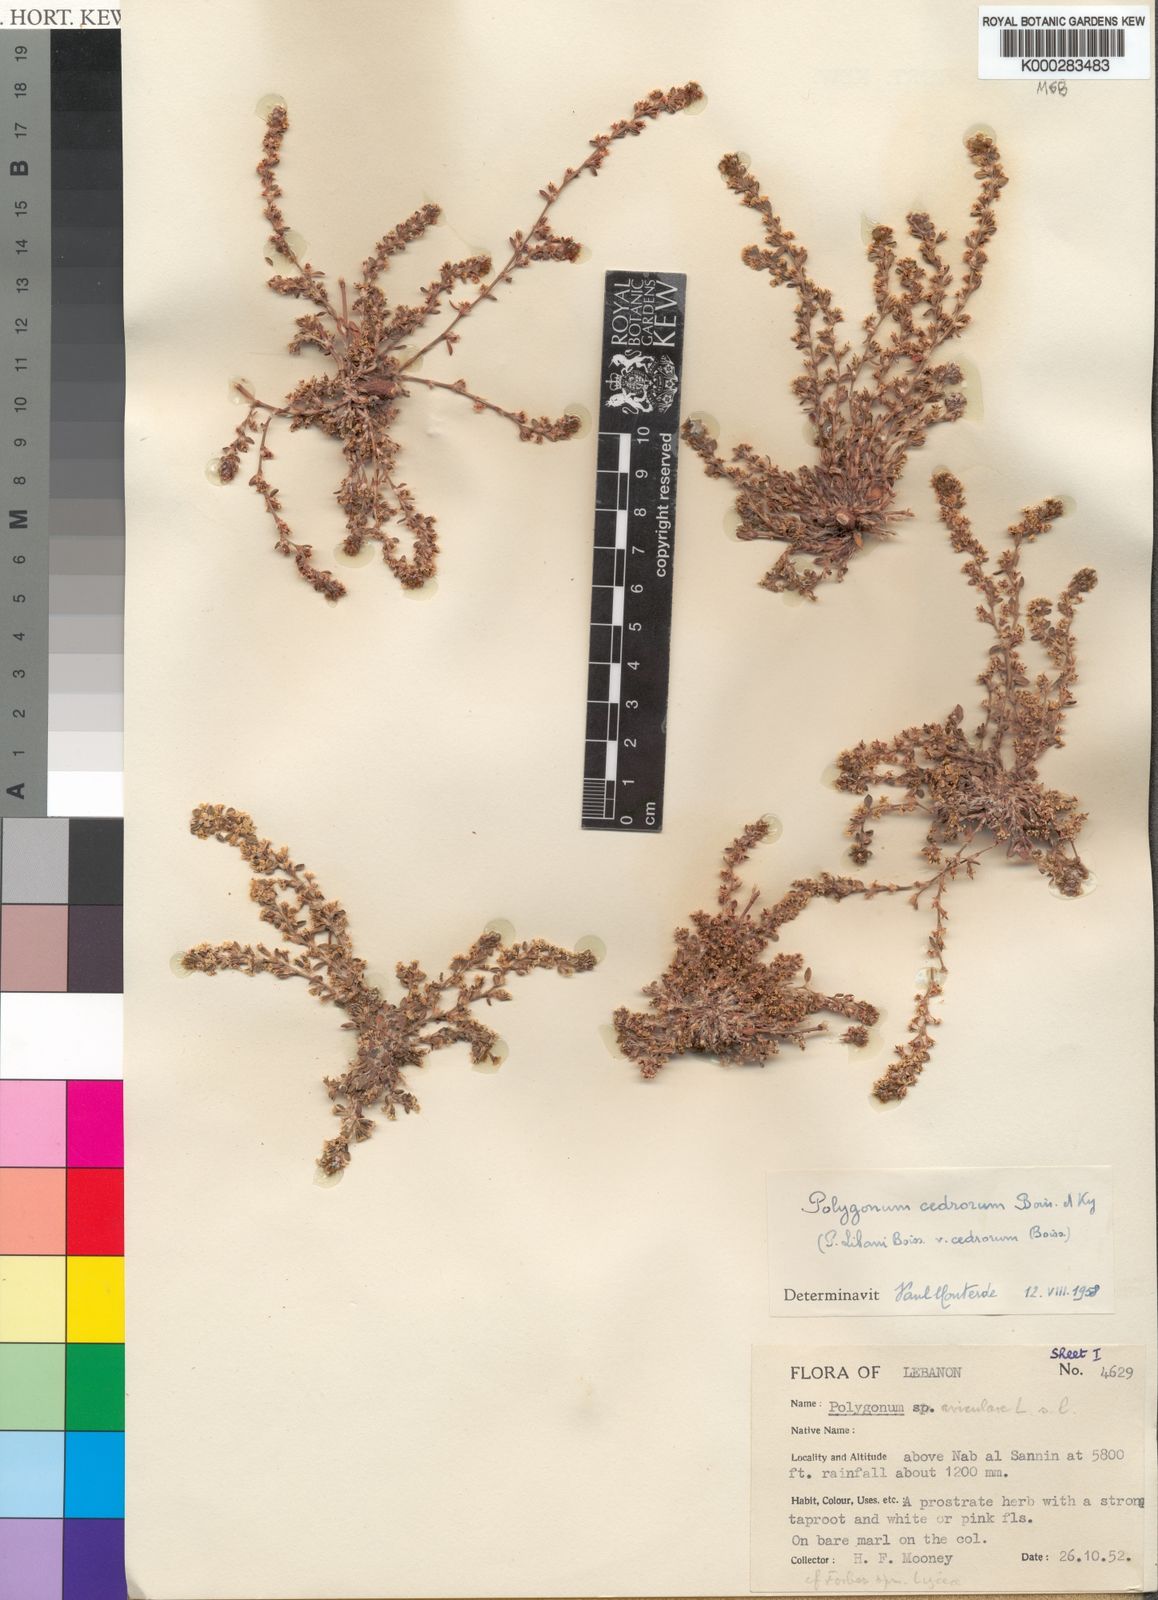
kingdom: Plantae
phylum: Tracheophyta
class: Magnoliopsida
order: Caryophyllales
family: Polygonaceae
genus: Polygonum
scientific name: Polygonum cedrorum
